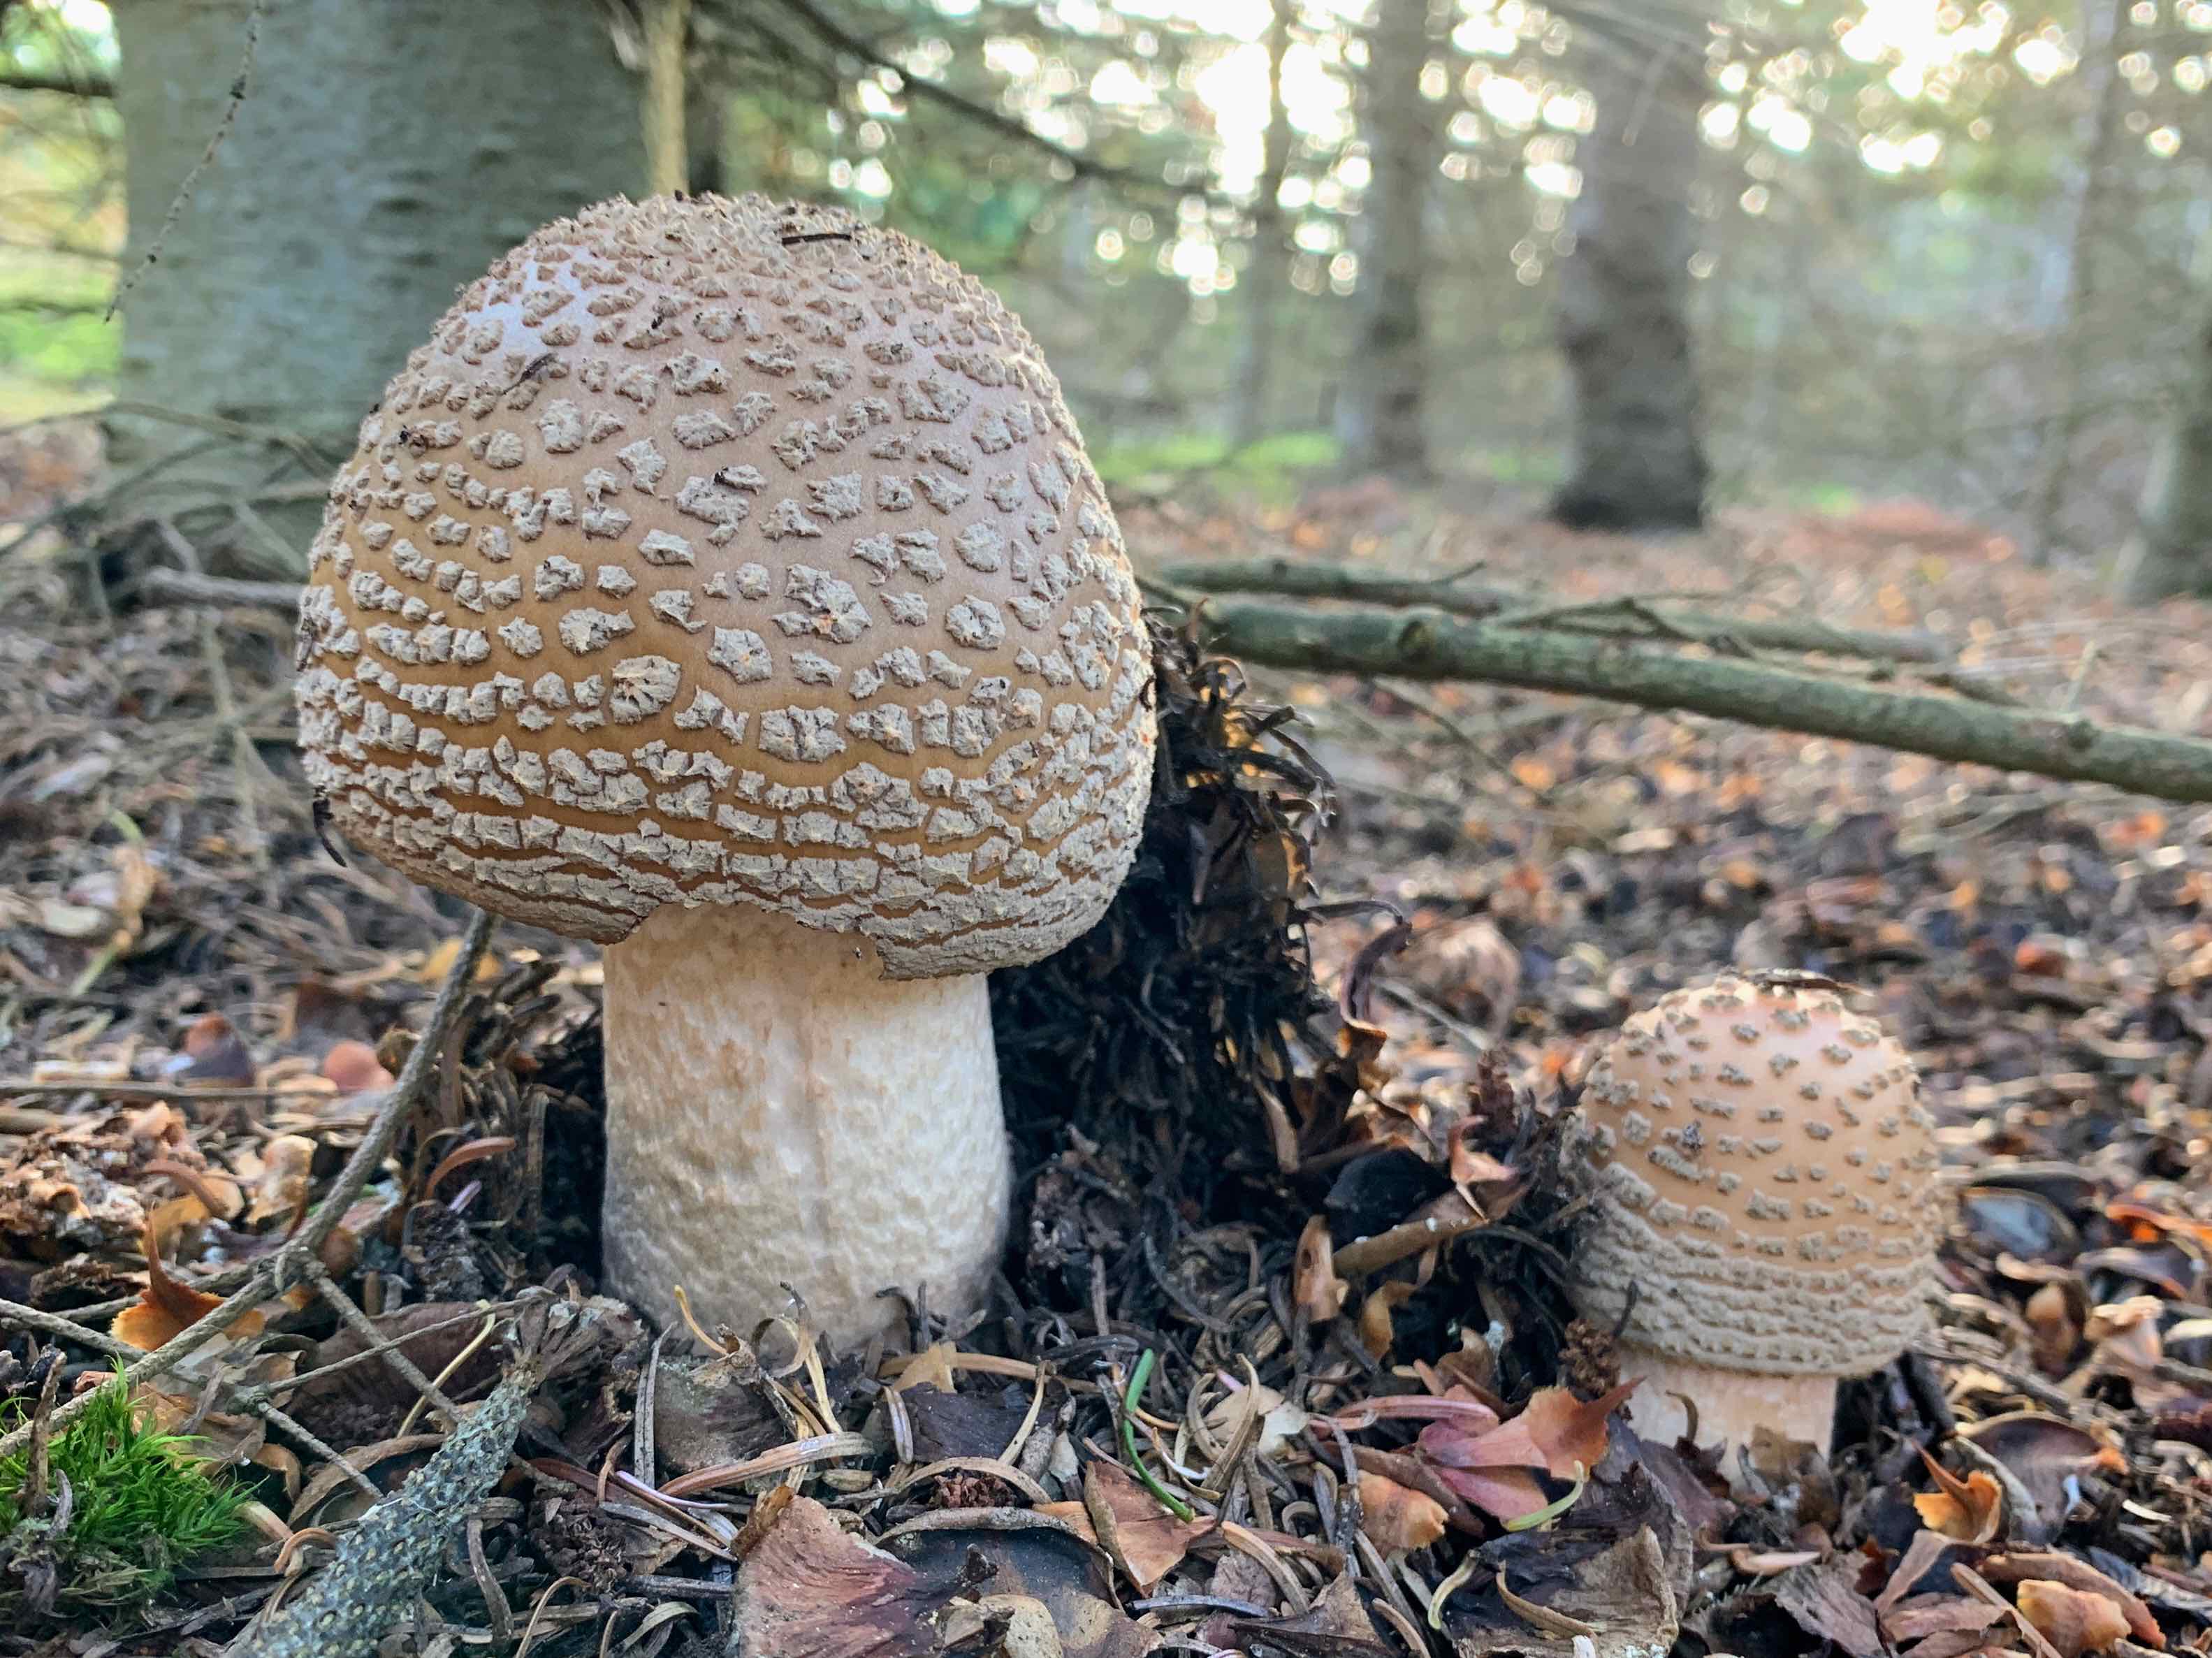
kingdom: Fungi
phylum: Basidiomycota
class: Agaricomycetes
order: Agaricales
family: Amanitaceae
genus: Amanita
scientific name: Amanita rubescens
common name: rødmende fluesvamp
